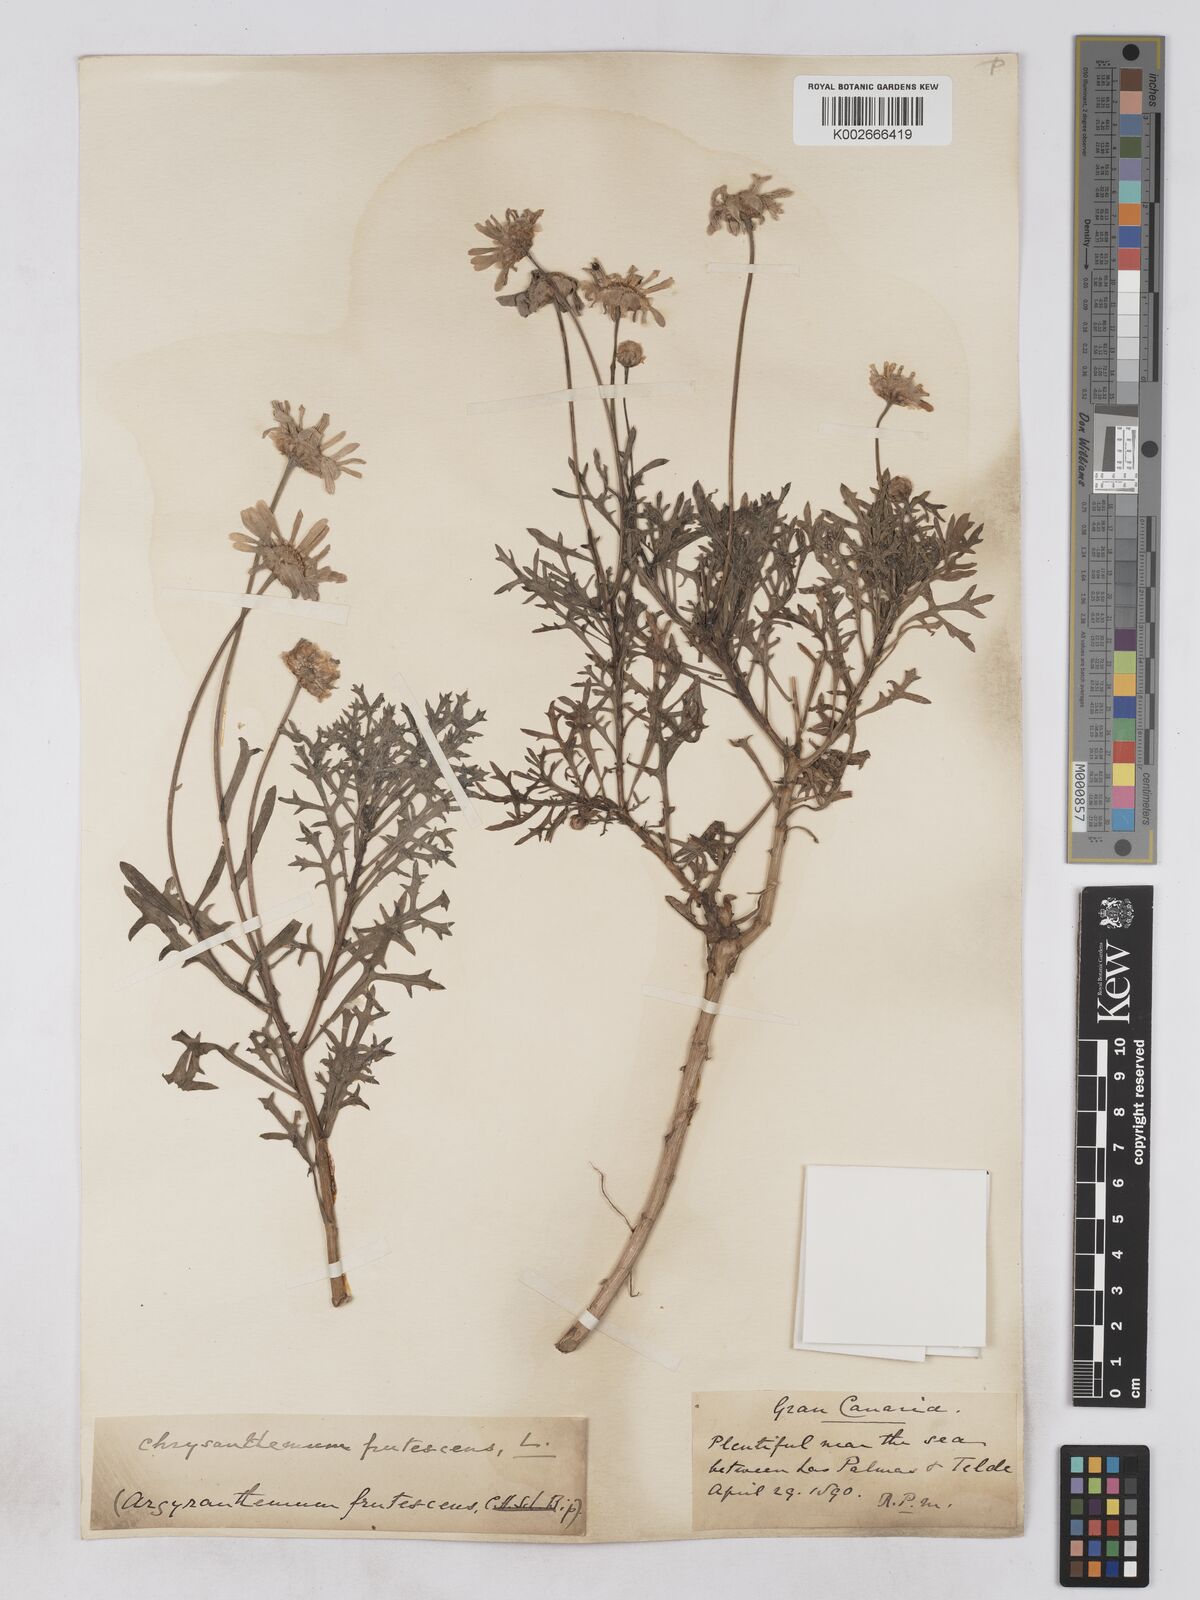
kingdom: Plantae
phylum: Tracheophyta
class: Magnoliopsida
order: Asterales
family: Asteraceae
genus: Argyranthemum
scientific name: Argyranthemum frutescens
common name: Paris daisy
